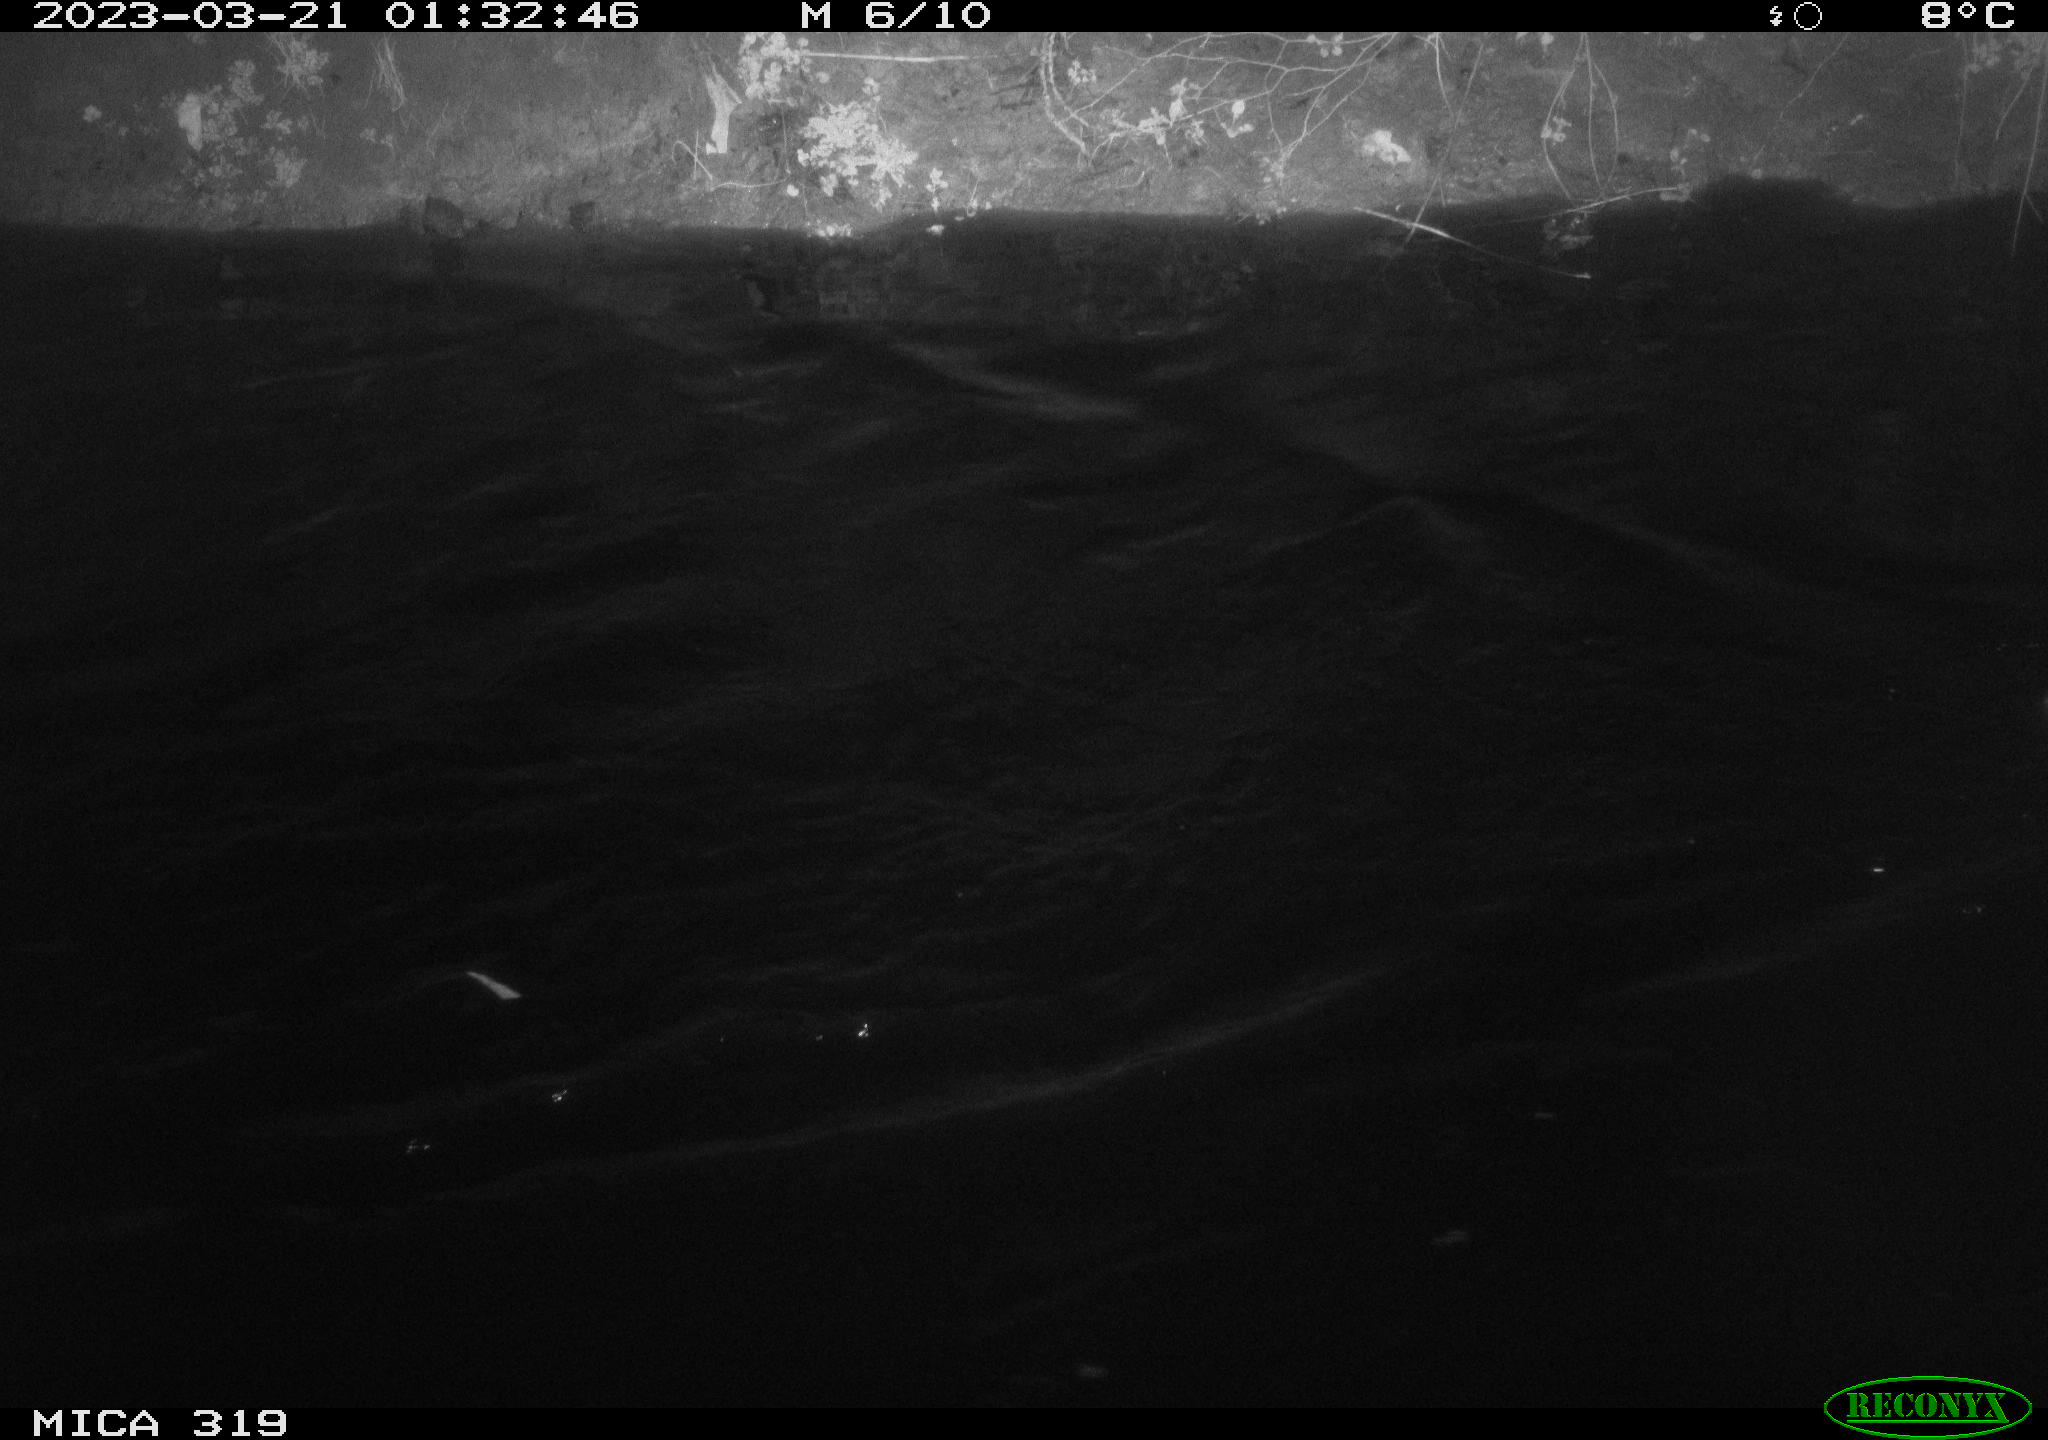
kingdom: Animalia
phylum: Chordata
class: Aves
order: Anseriformes
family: Anatidae
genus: Anas
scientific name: Anas
